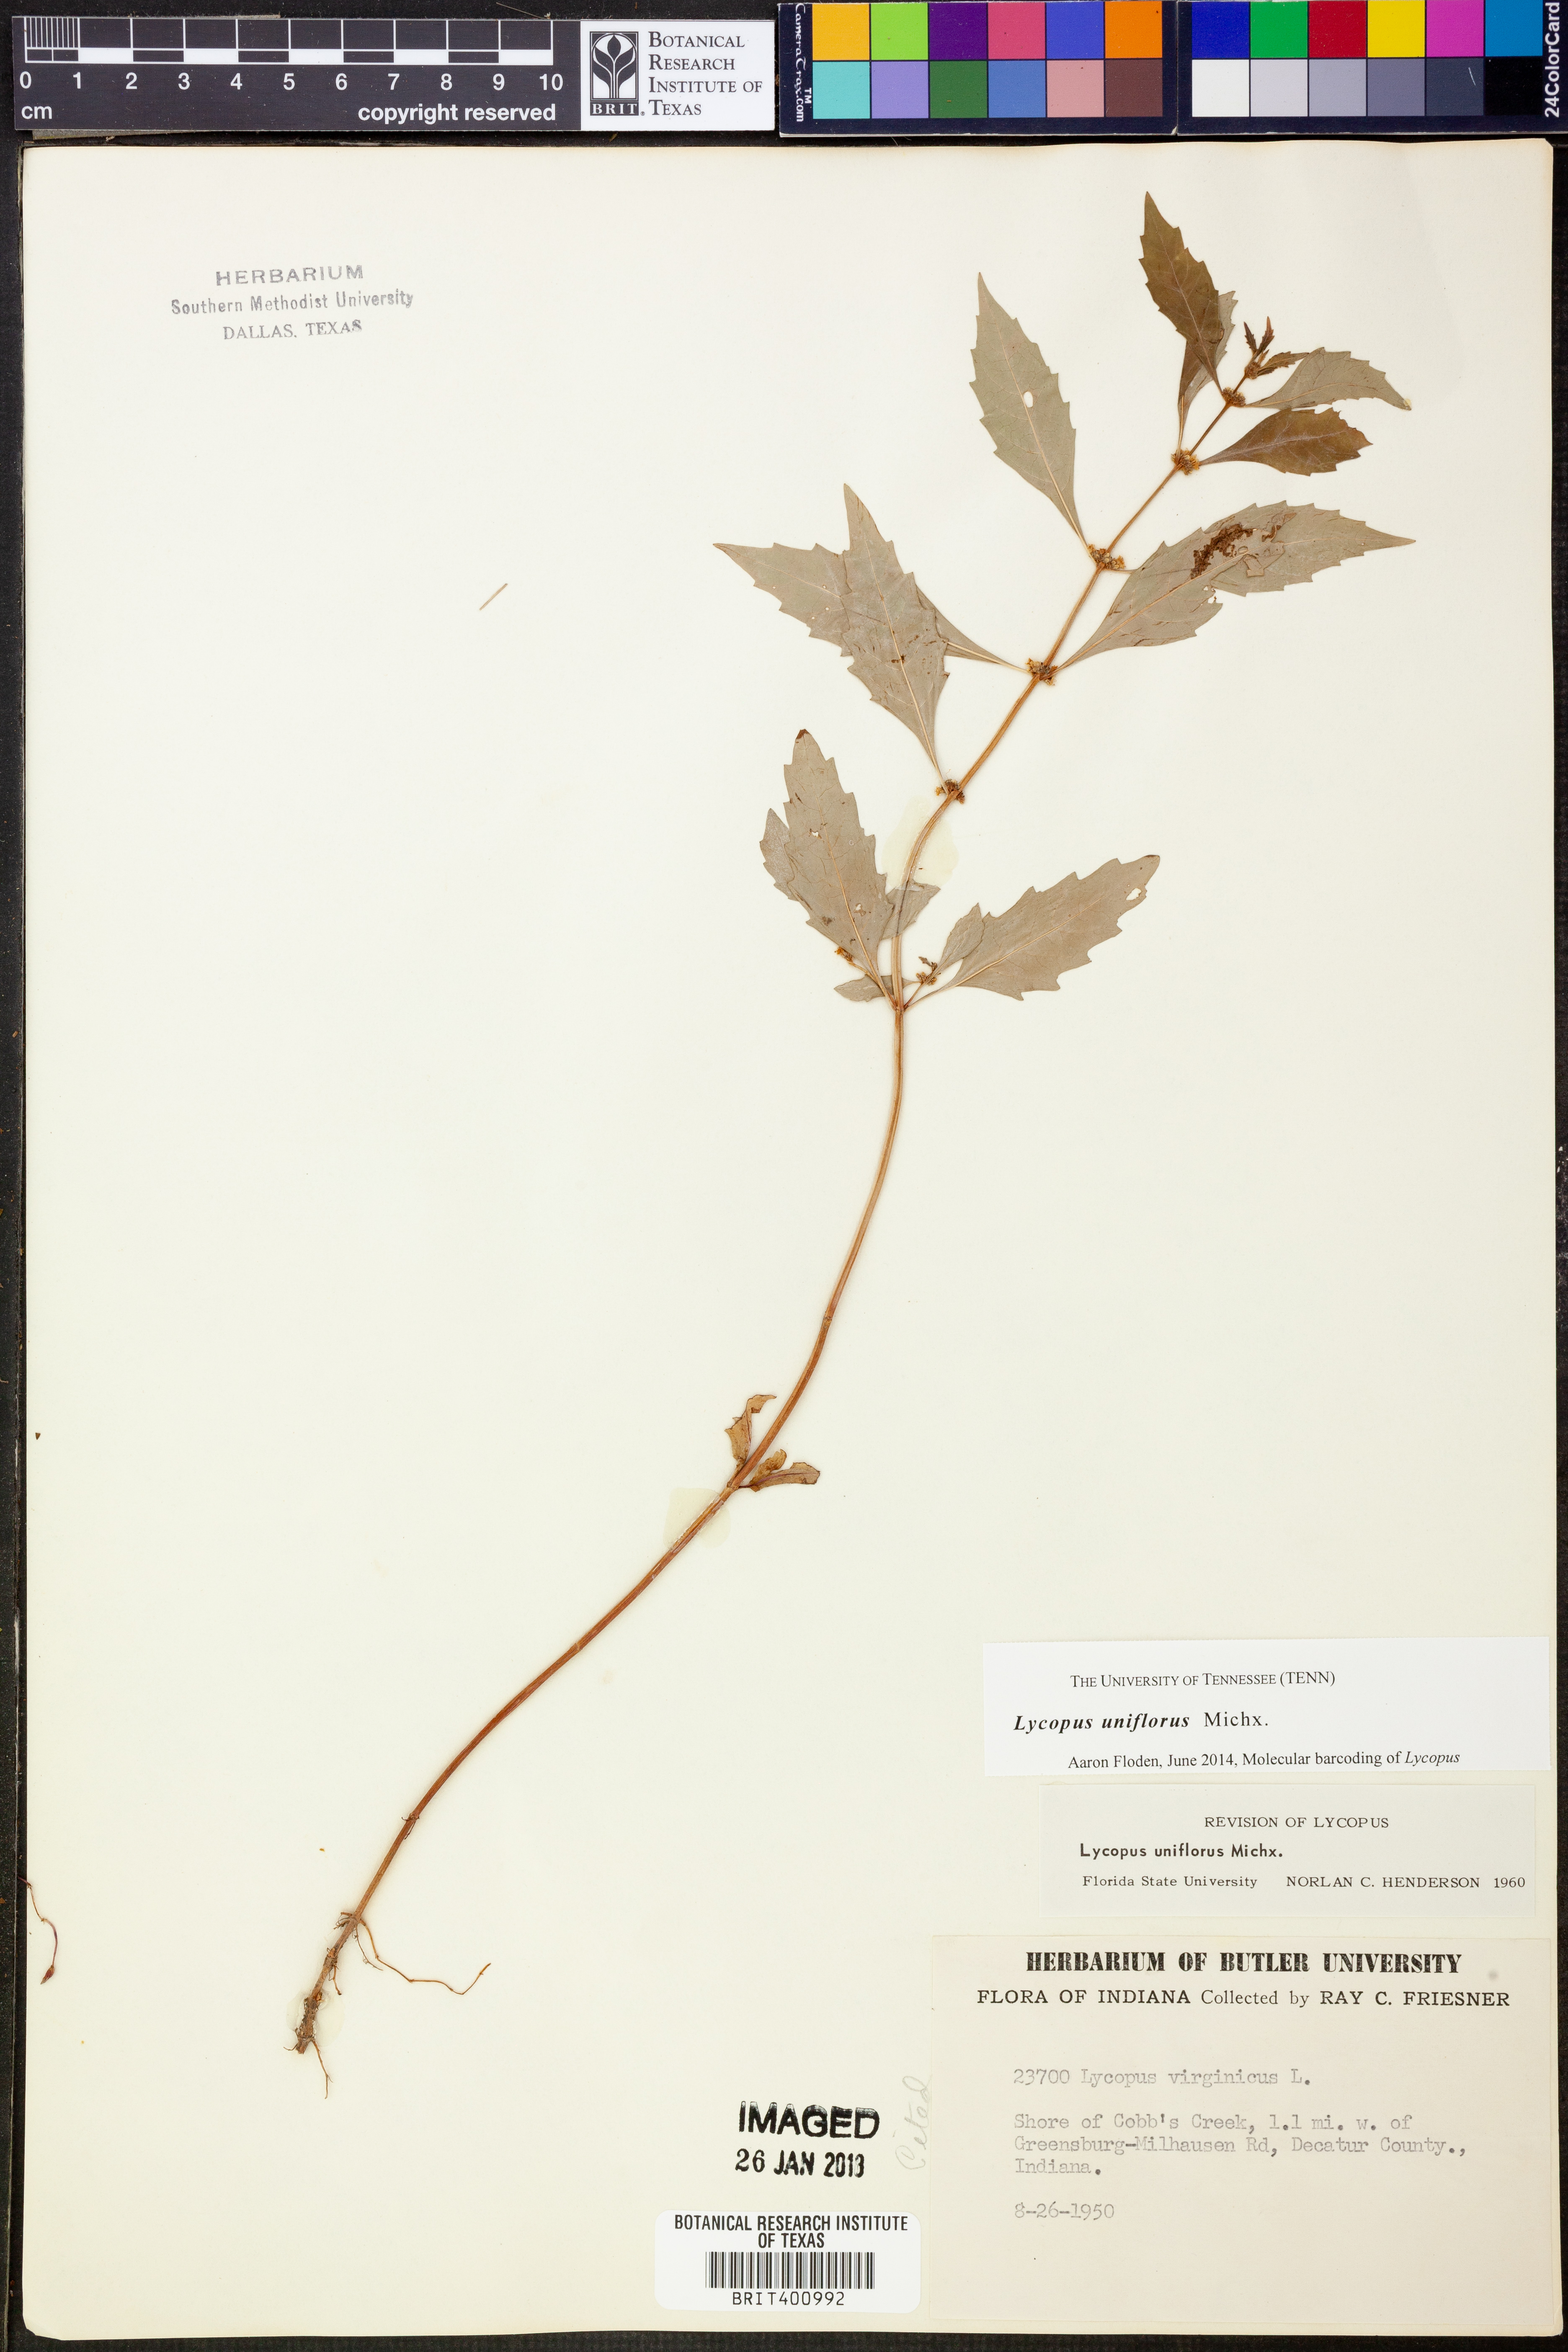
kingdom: Plantae
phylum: Tracheophyta
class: Magnoliopsida
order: Lamiales
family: Lamiaceae
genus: Lycopus
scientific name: Lycopus uniflorus
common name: Northern bugleweed
